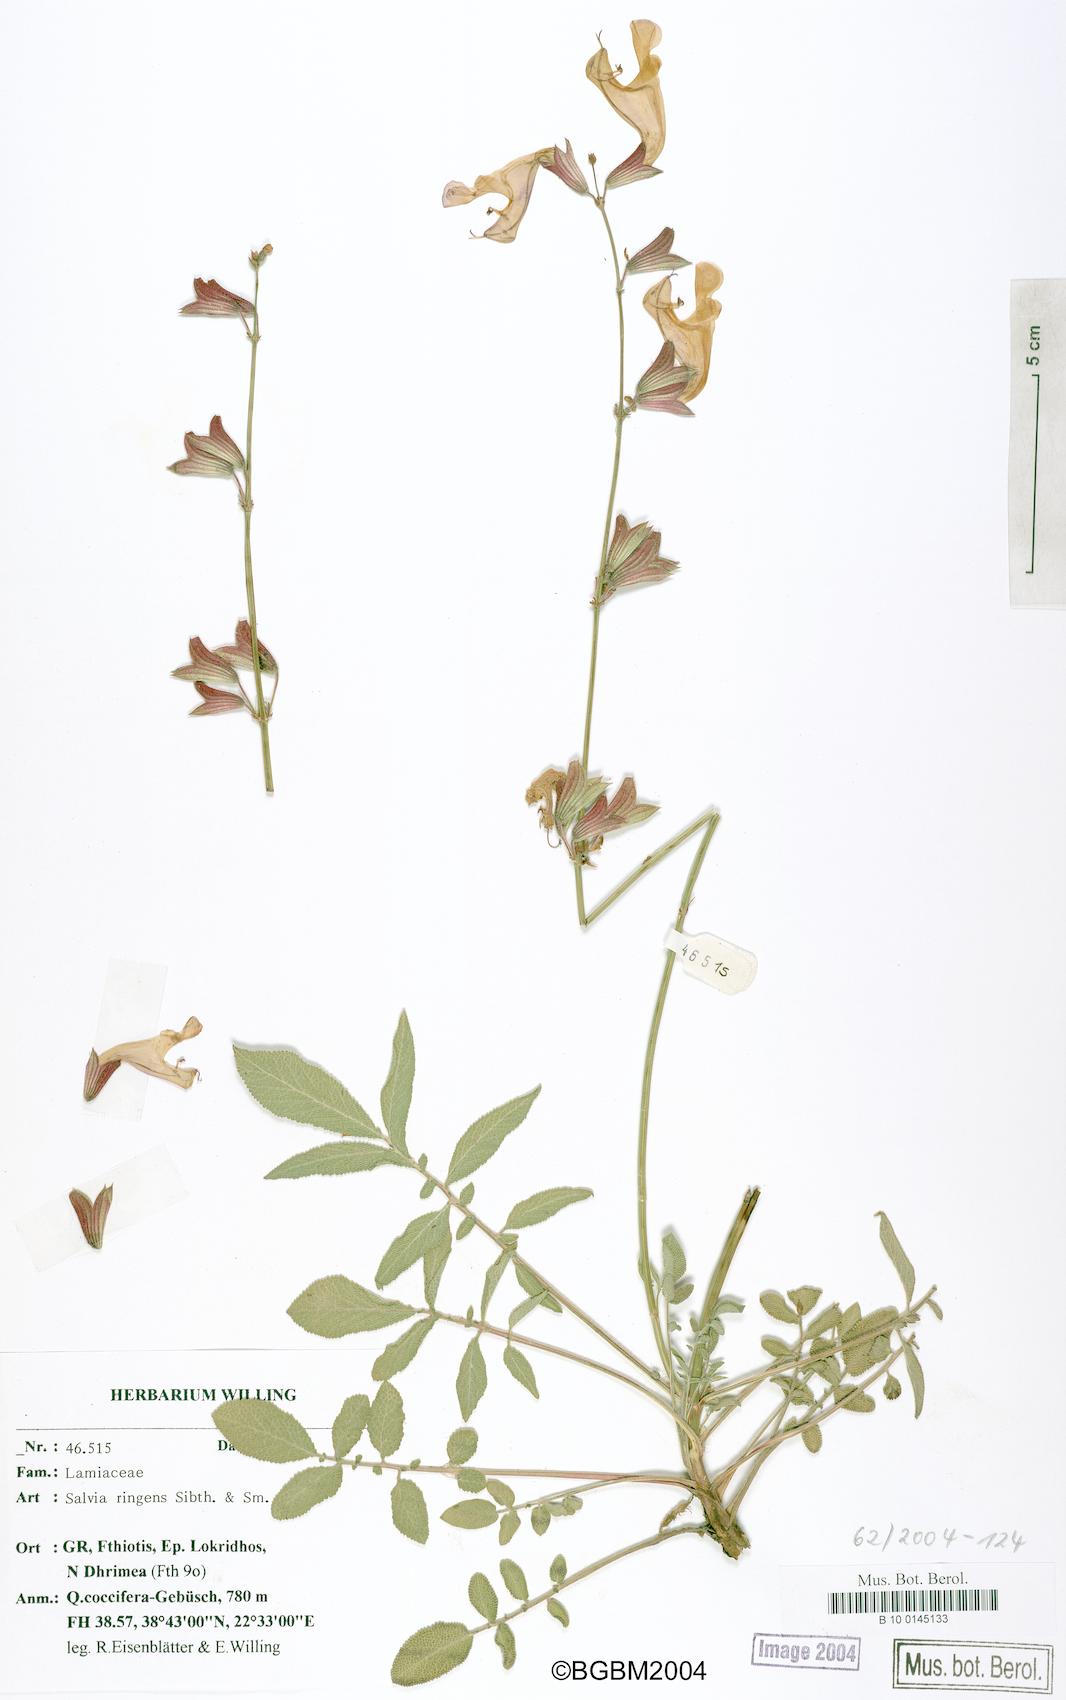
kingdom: Plantae
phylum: Tracheophyta
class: Magnoliopsida
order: Lamiales
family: Lamiaceae
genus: Salvia
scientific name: Salvia ringens
